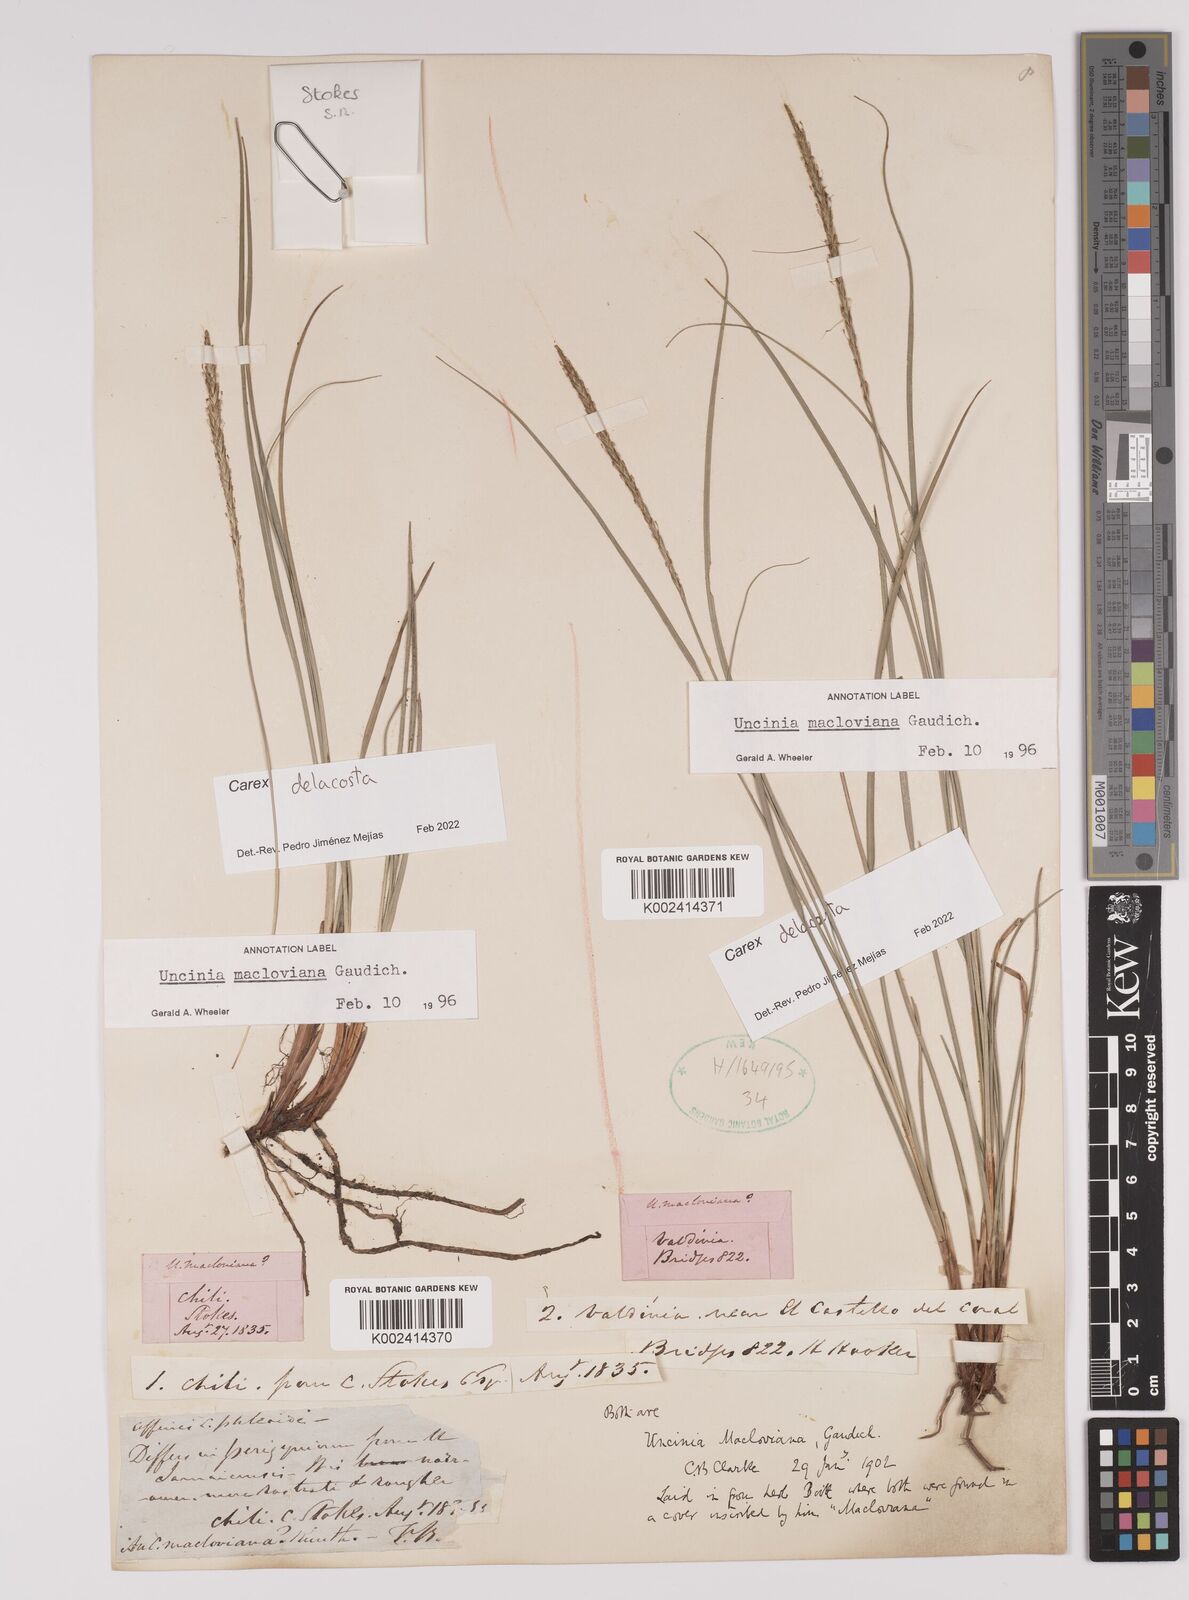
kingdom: Plantae
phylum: Tracheophyta
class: Liliopsida
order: Poales
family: Cyperaceae
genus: Carex
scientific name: Carex delacosta
